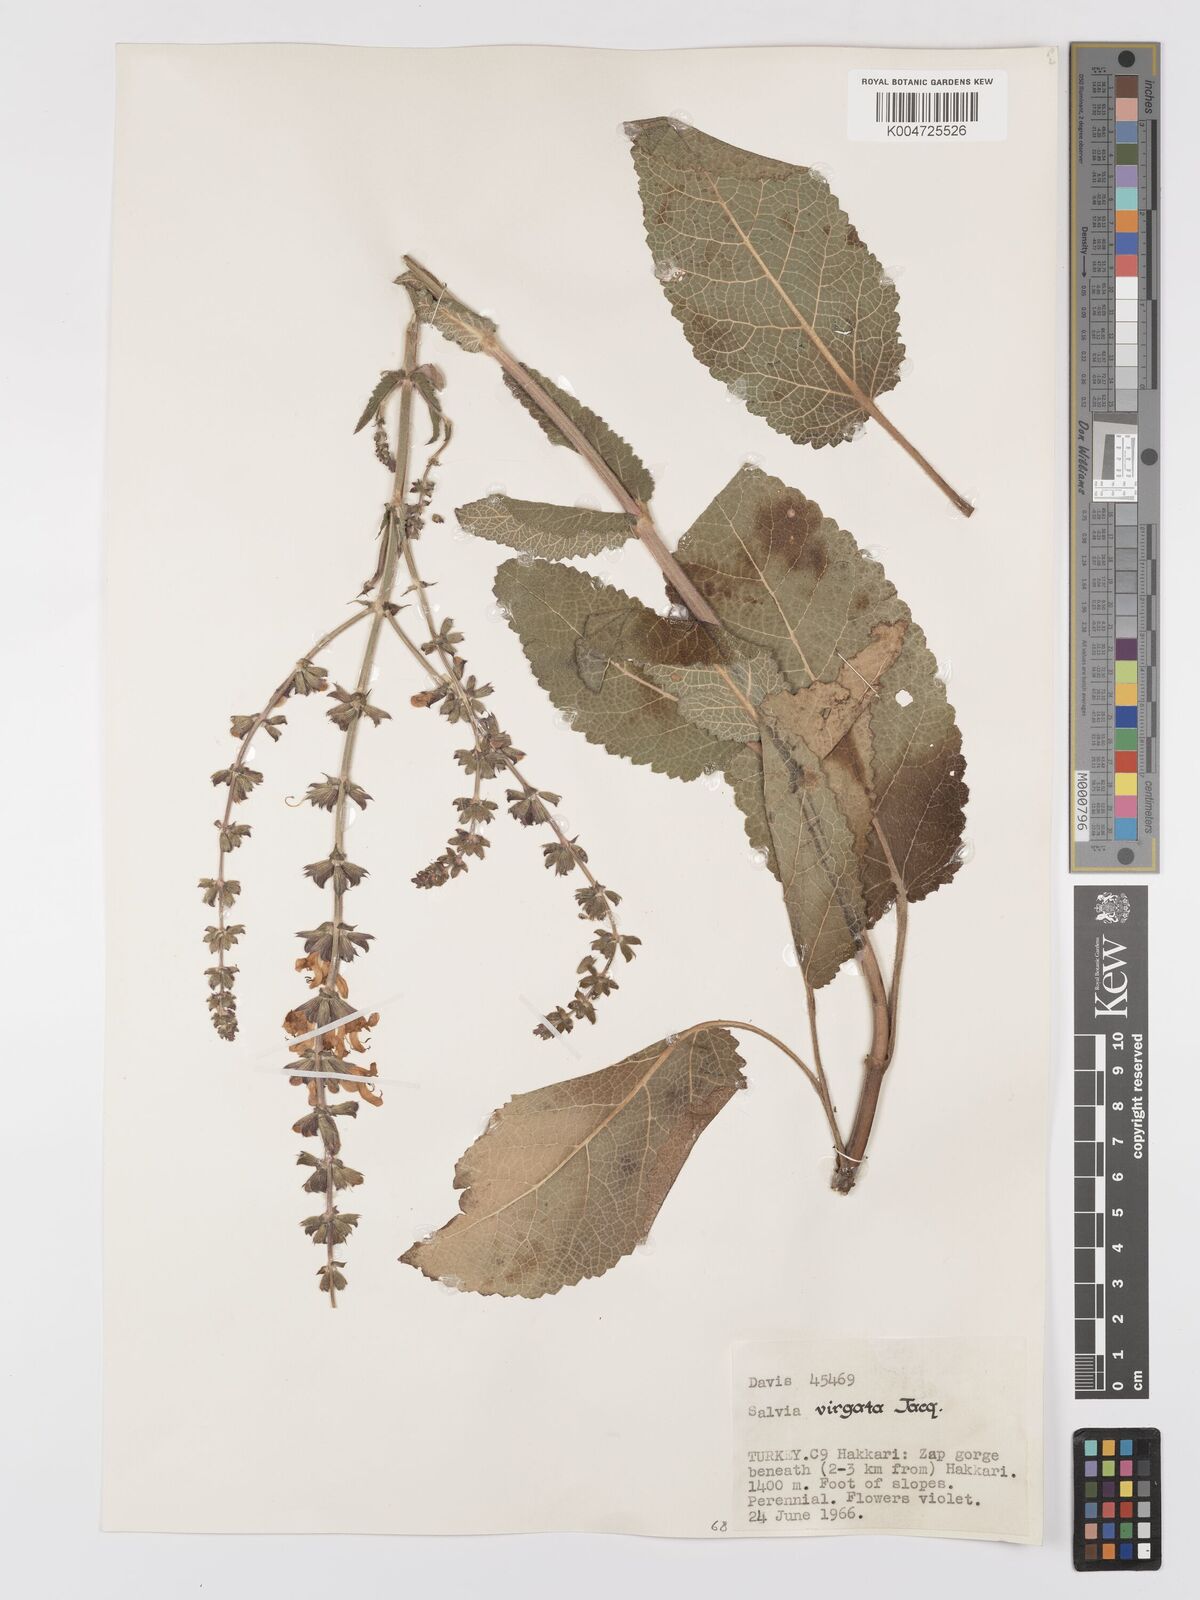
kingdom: Plantae
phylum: Tracheophyta
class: Magnoliopsida
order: Lamiales
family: Lamiaceae
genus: Salvia
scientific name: Salvia
